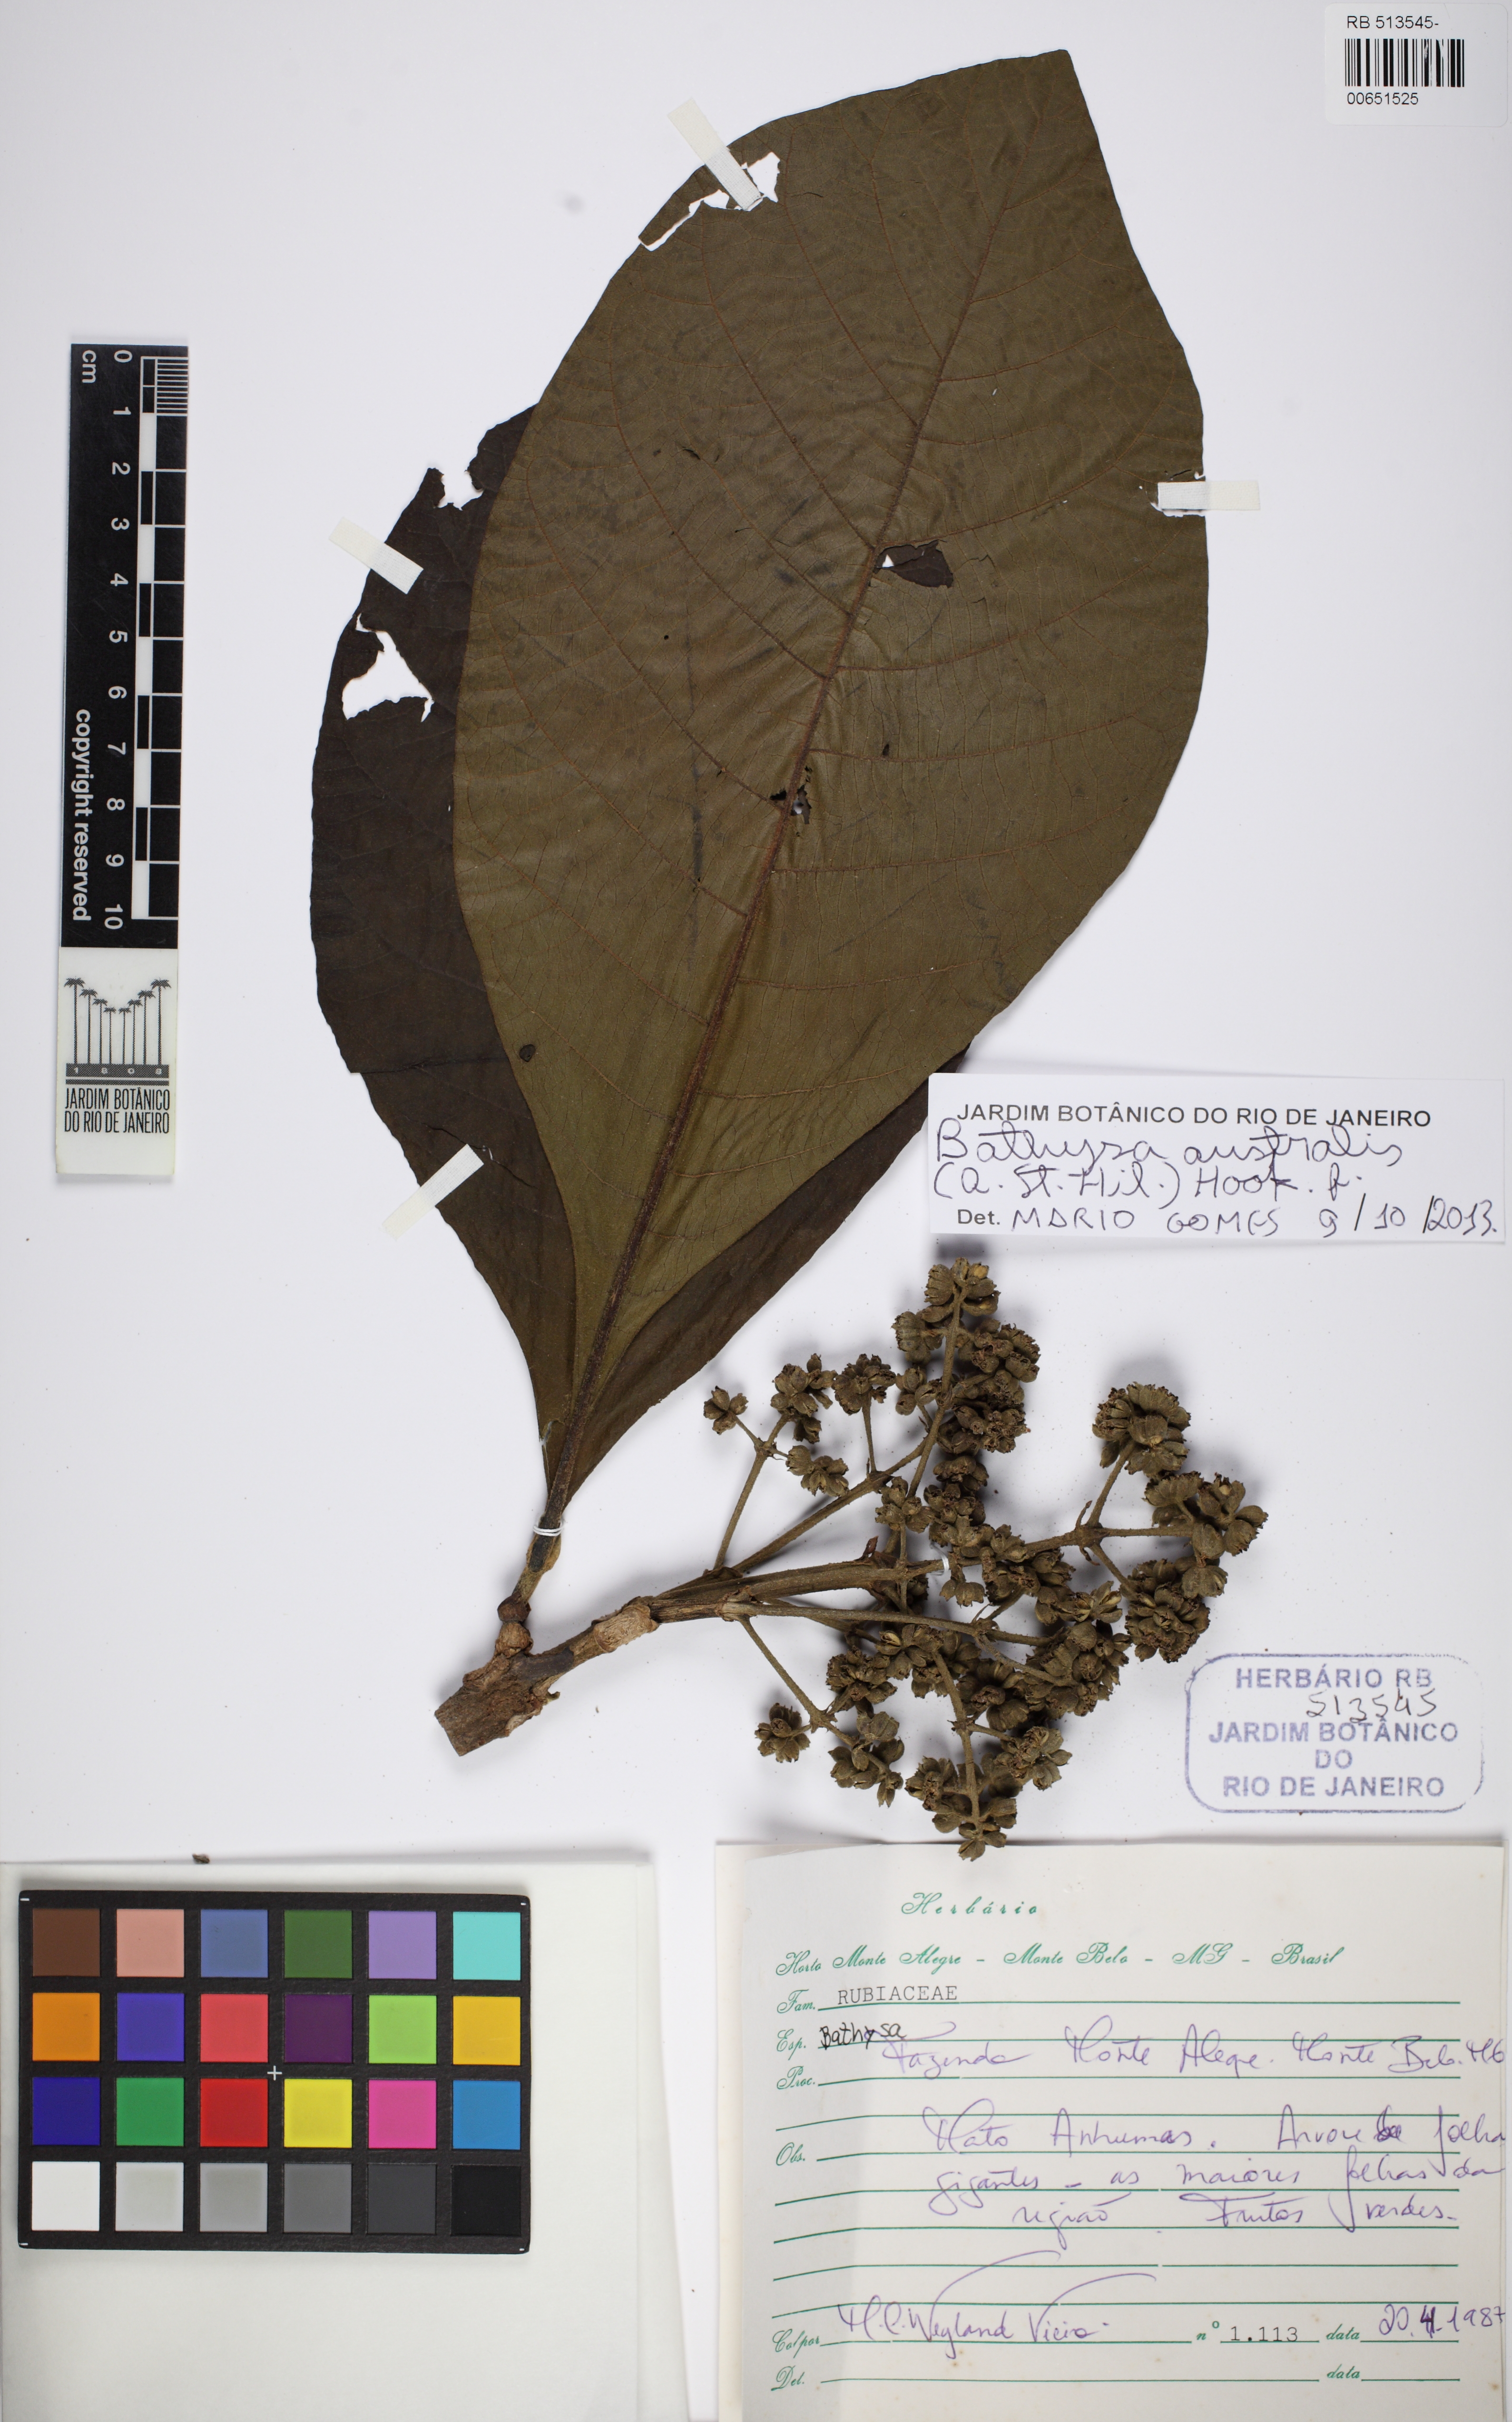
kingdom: Plantae
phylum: Tracheophyta
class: Magnoliopsida
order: Gentianales
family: Rubiaceae
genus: Bathysa
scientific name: Bathysa australis
